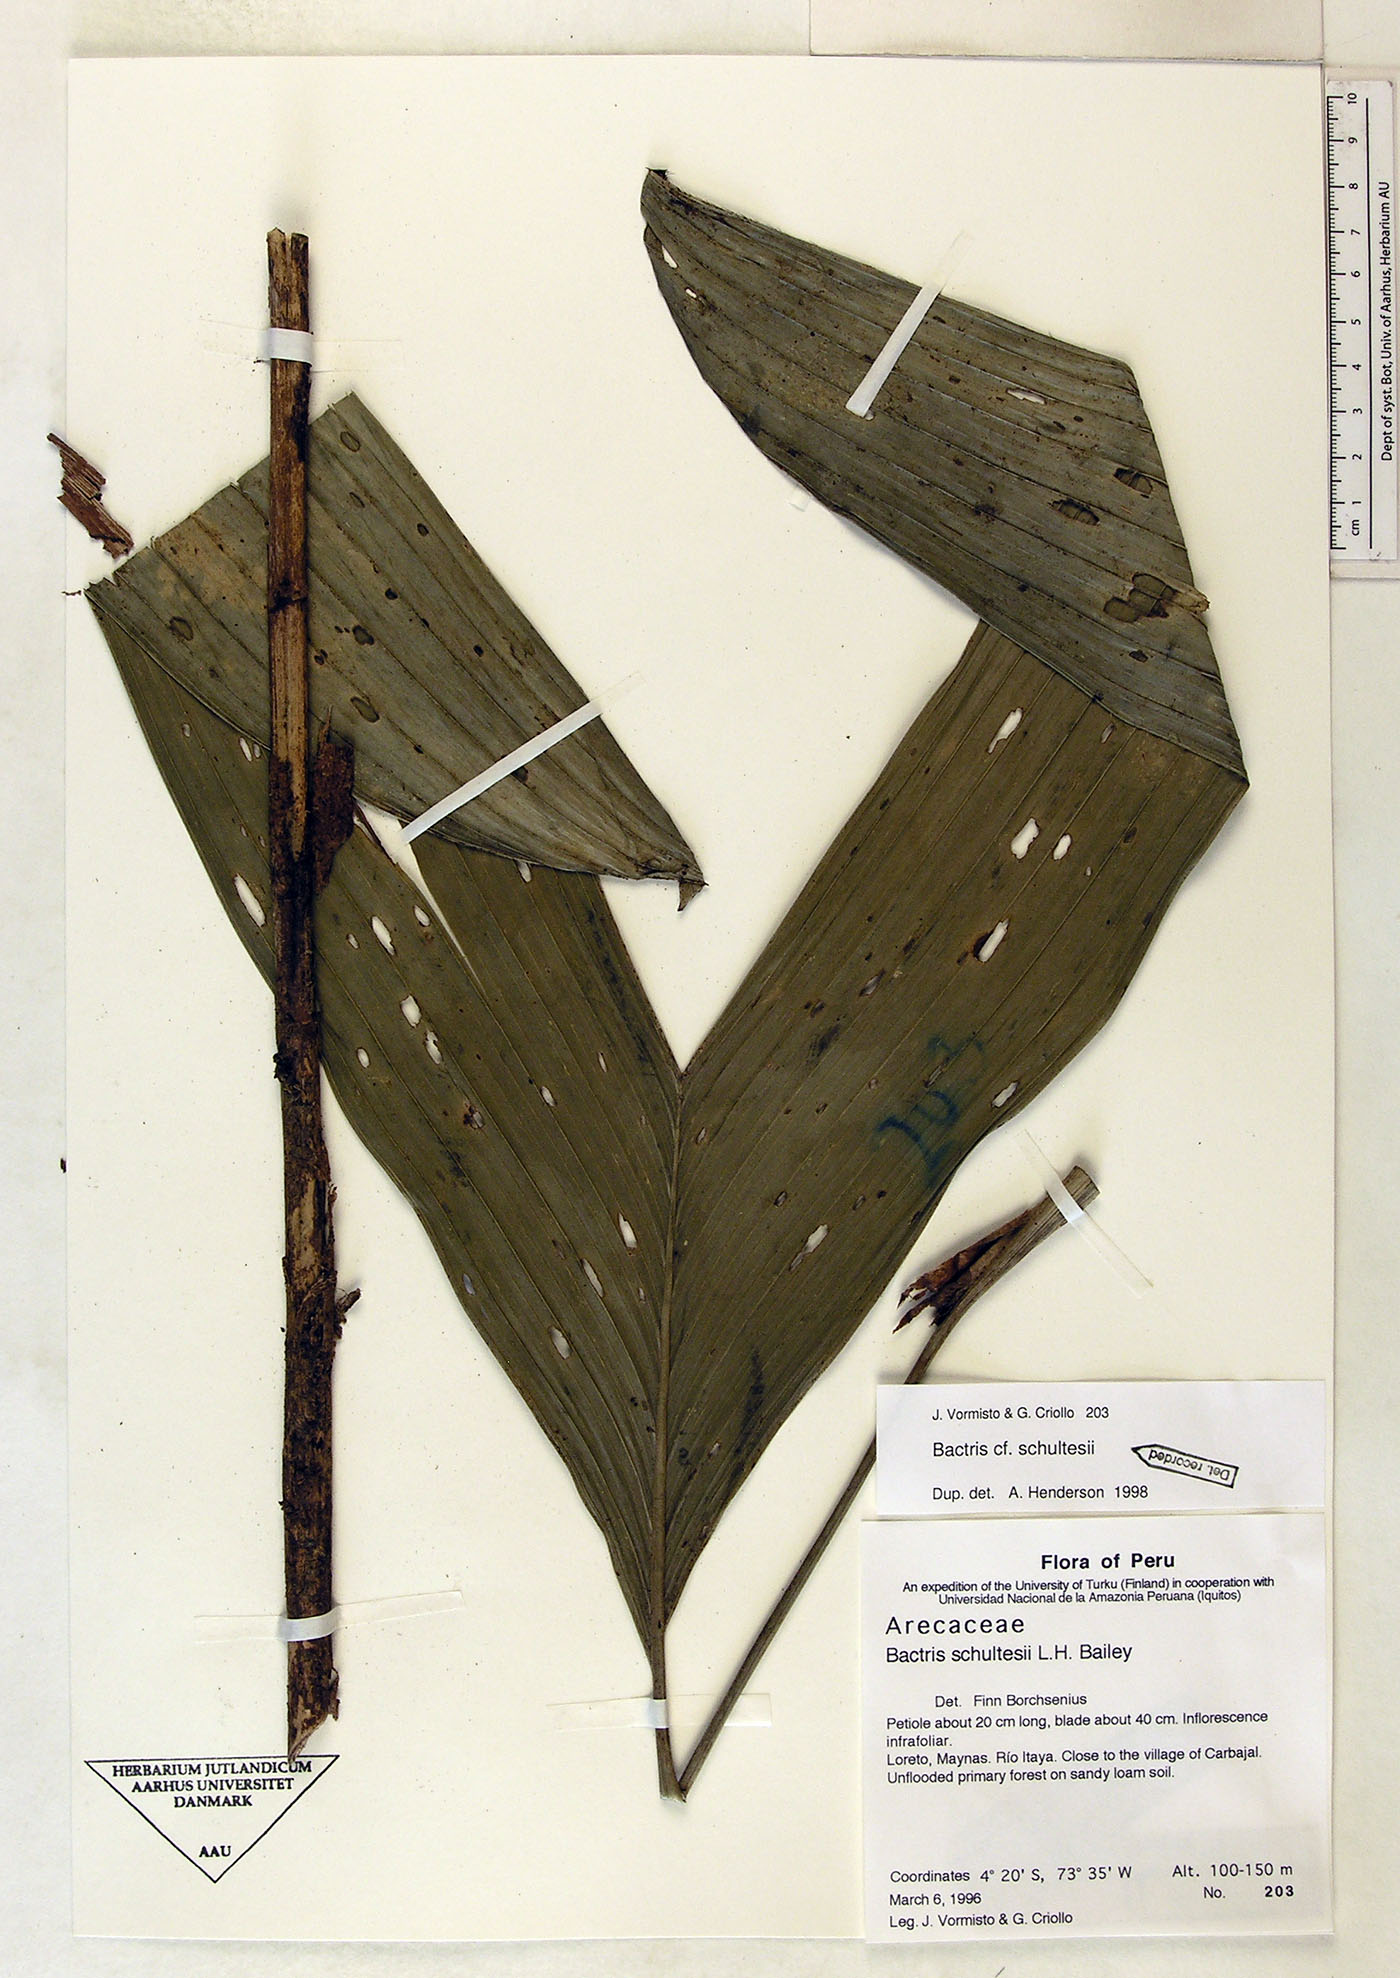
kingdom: Plantae
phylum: Tracheophyta
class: Liliopsida
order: Arecales
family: Arecaceae
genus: Bactris
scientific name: Bactris schultesii
